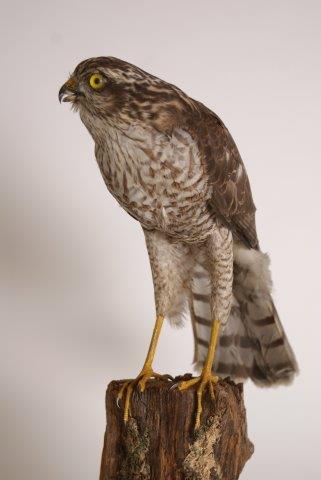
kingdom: Animalia
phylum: Chordata
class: Aves
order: Accipitriformes
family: Accipitridae
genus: Accipiter
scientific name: Accipiter nisus
